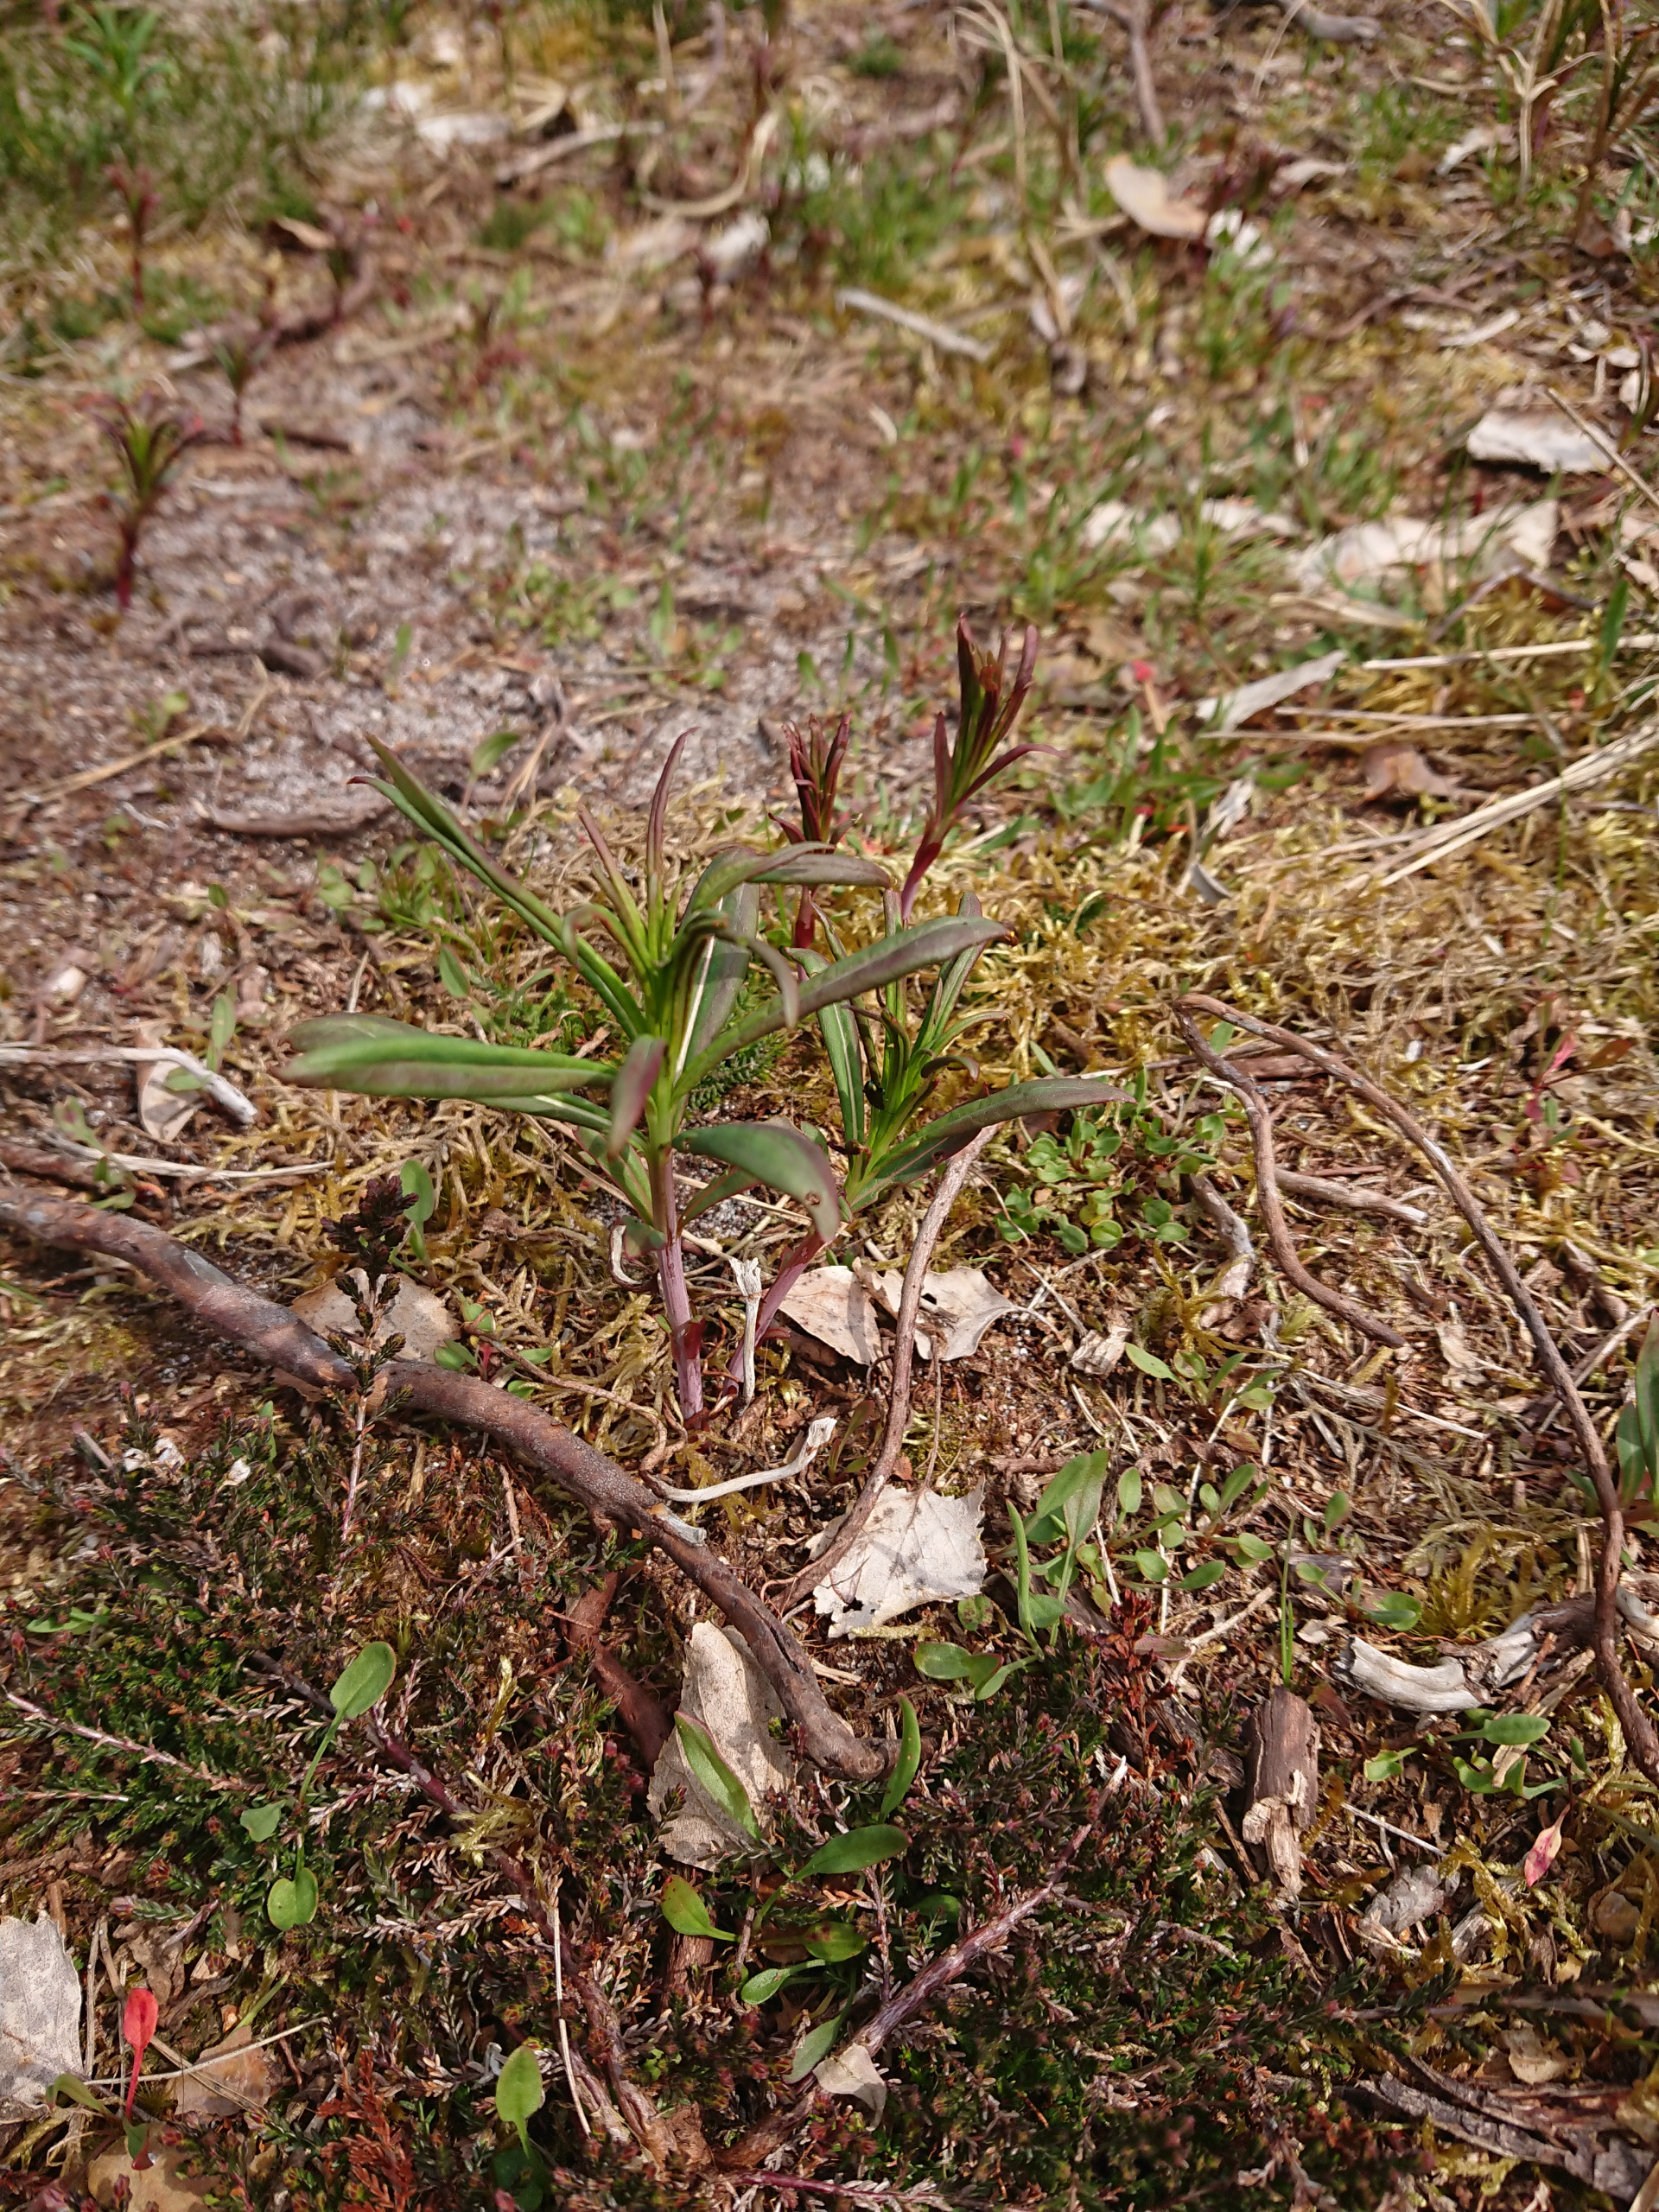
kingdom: Plantae
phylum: Tracheophyta
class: Magnoliopsida
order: Myrtales
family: Onagraceae
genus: Chamaenerion
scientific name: Chamaenerion angustifolium
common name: Gederams
